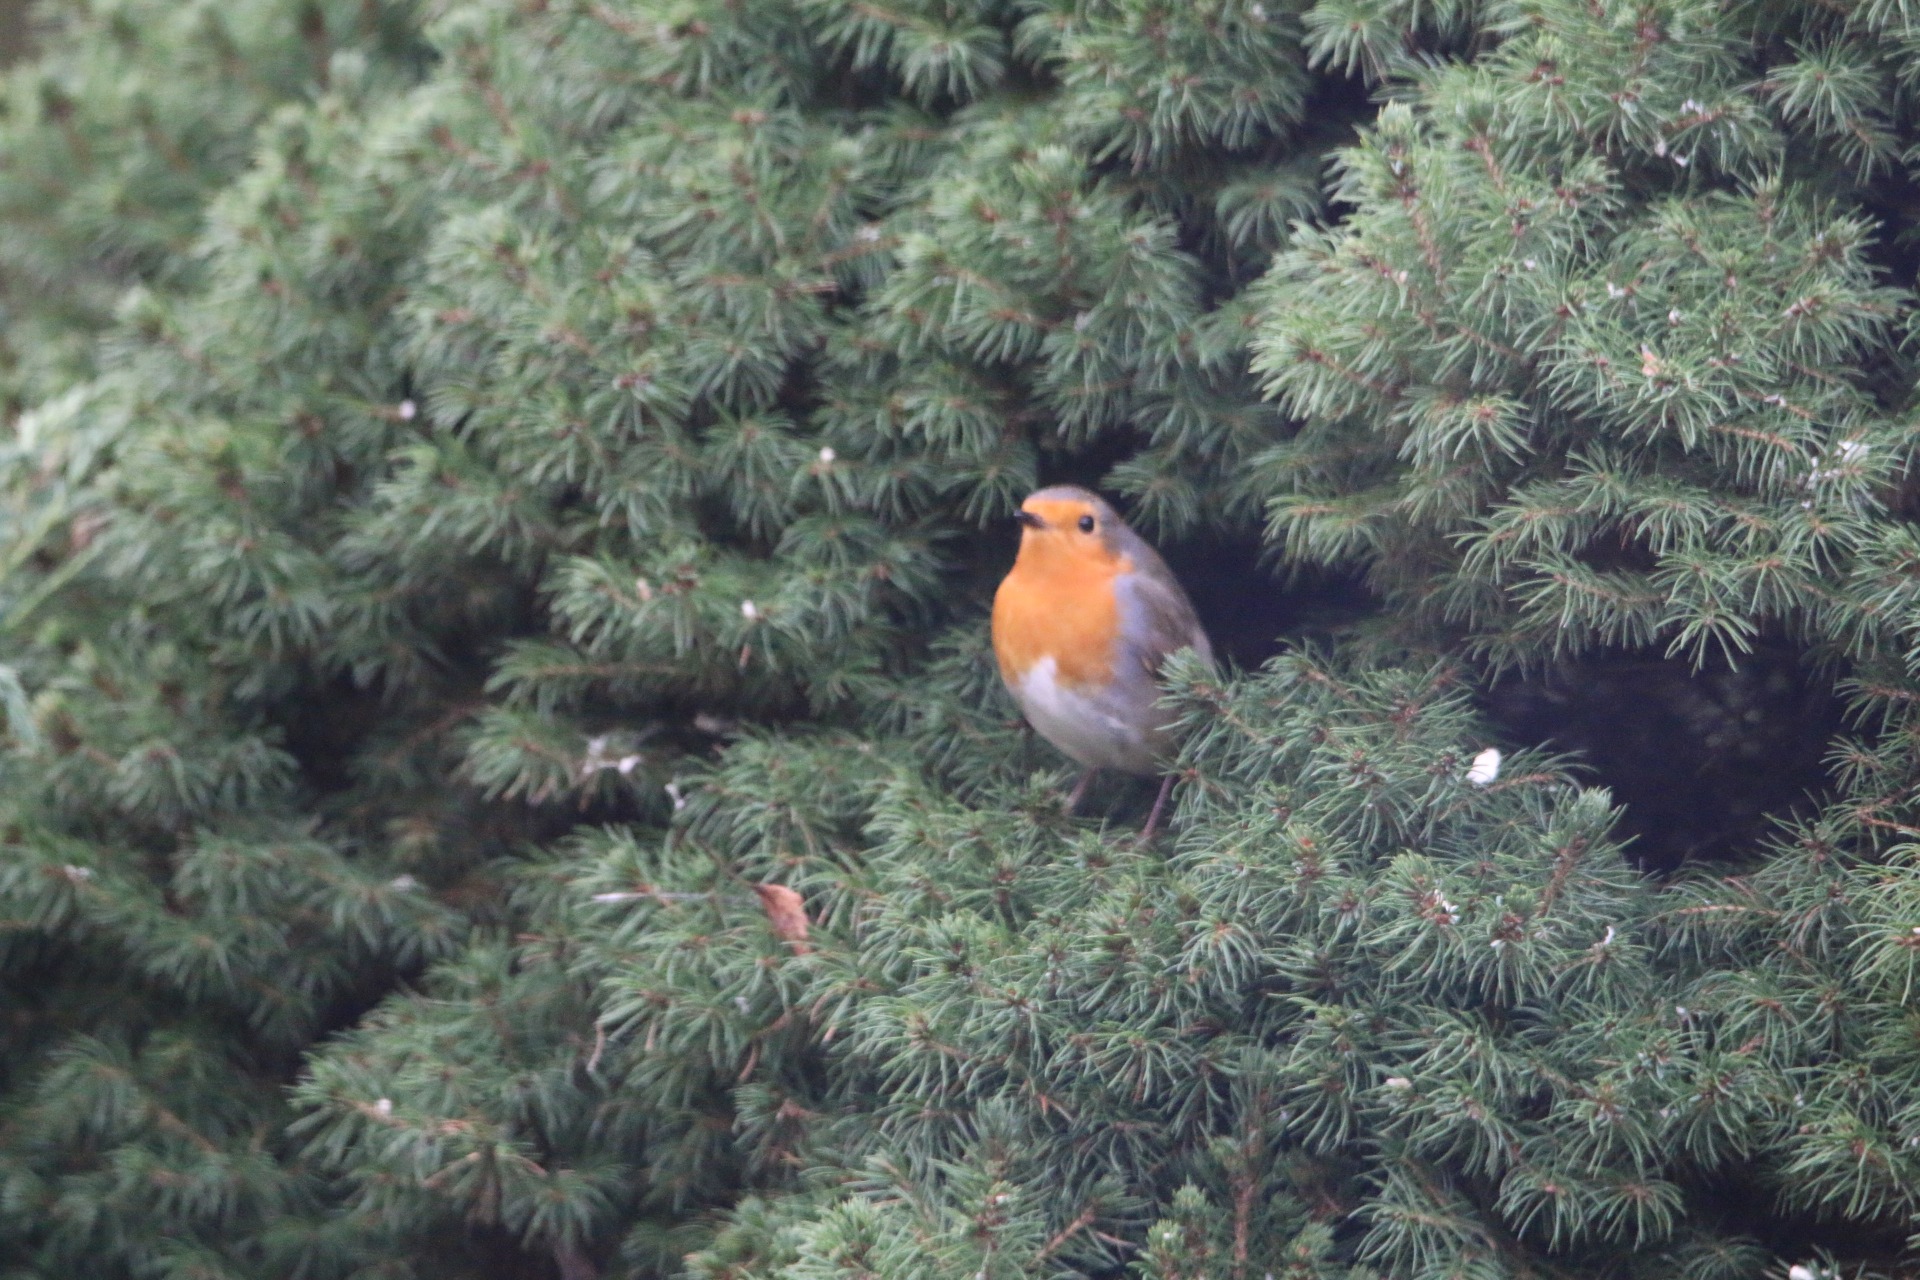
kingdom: Animalia
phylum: Chordata
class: Aves
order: Passeriformes
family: Muscicapidae
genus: Erithacus
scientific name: Erithacus rubecula
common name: Rødhals/rødkælk
